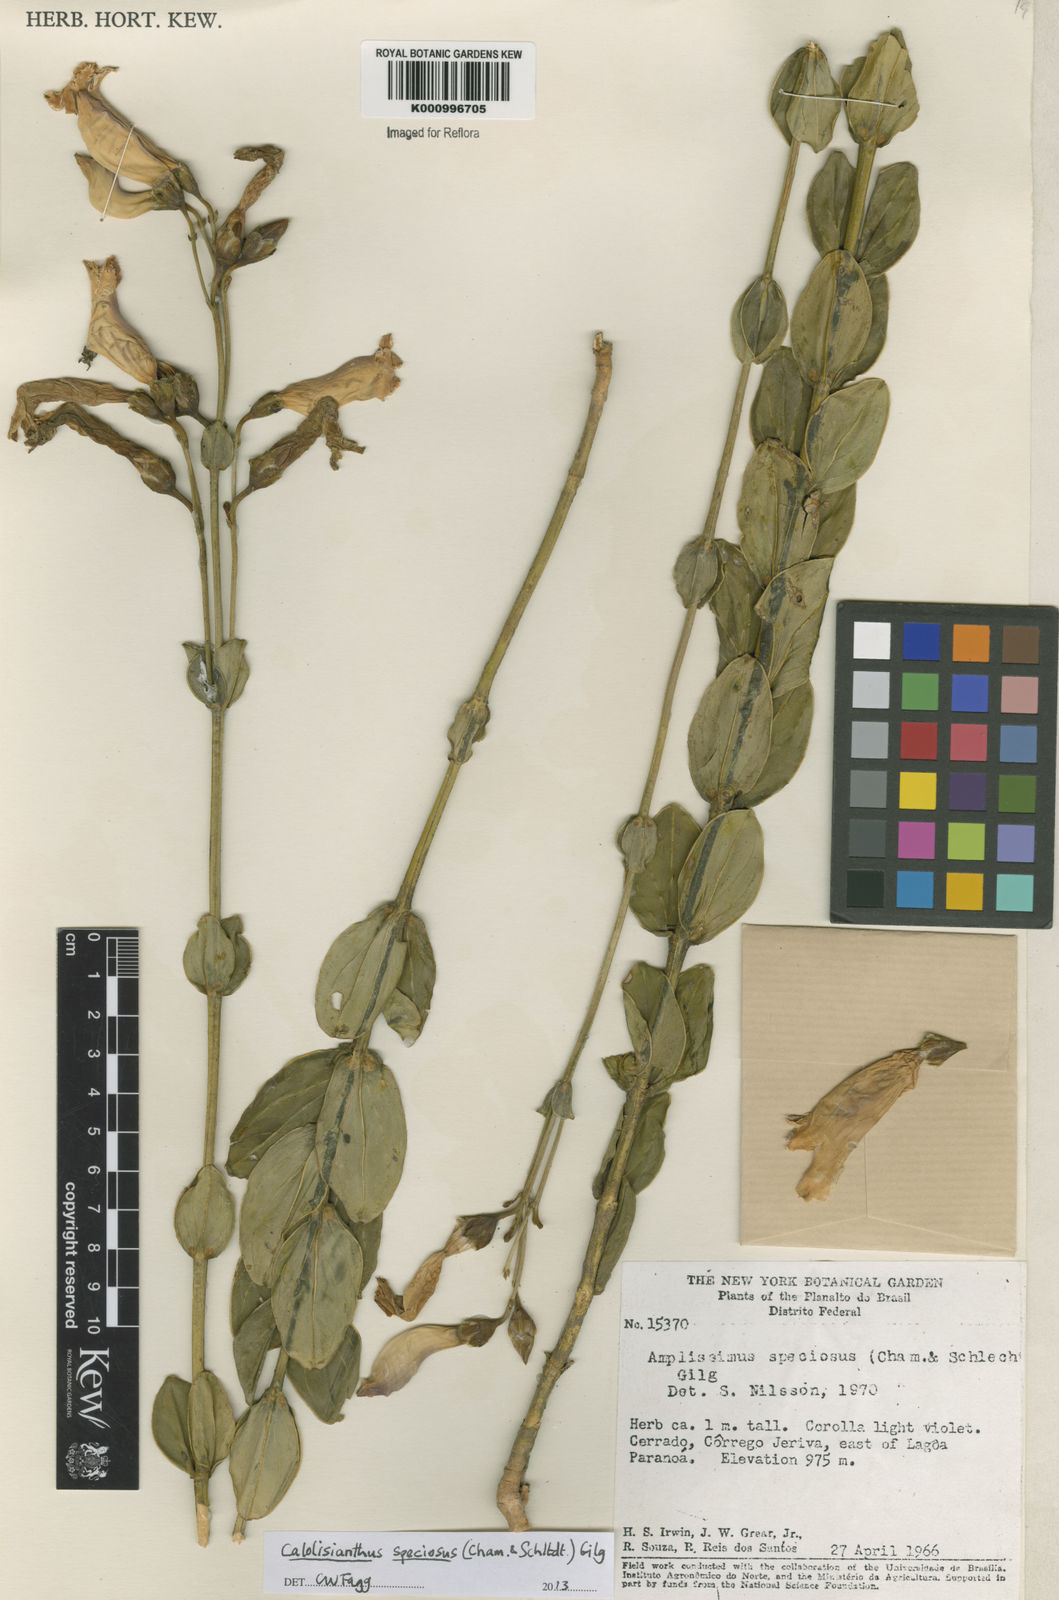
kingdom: Plantae
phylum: Tracheophyta
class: Magnoliopsida
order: Gentianales
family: Gentianaceae
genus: Calolisianthus
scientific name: Calolisianthus speciosus
